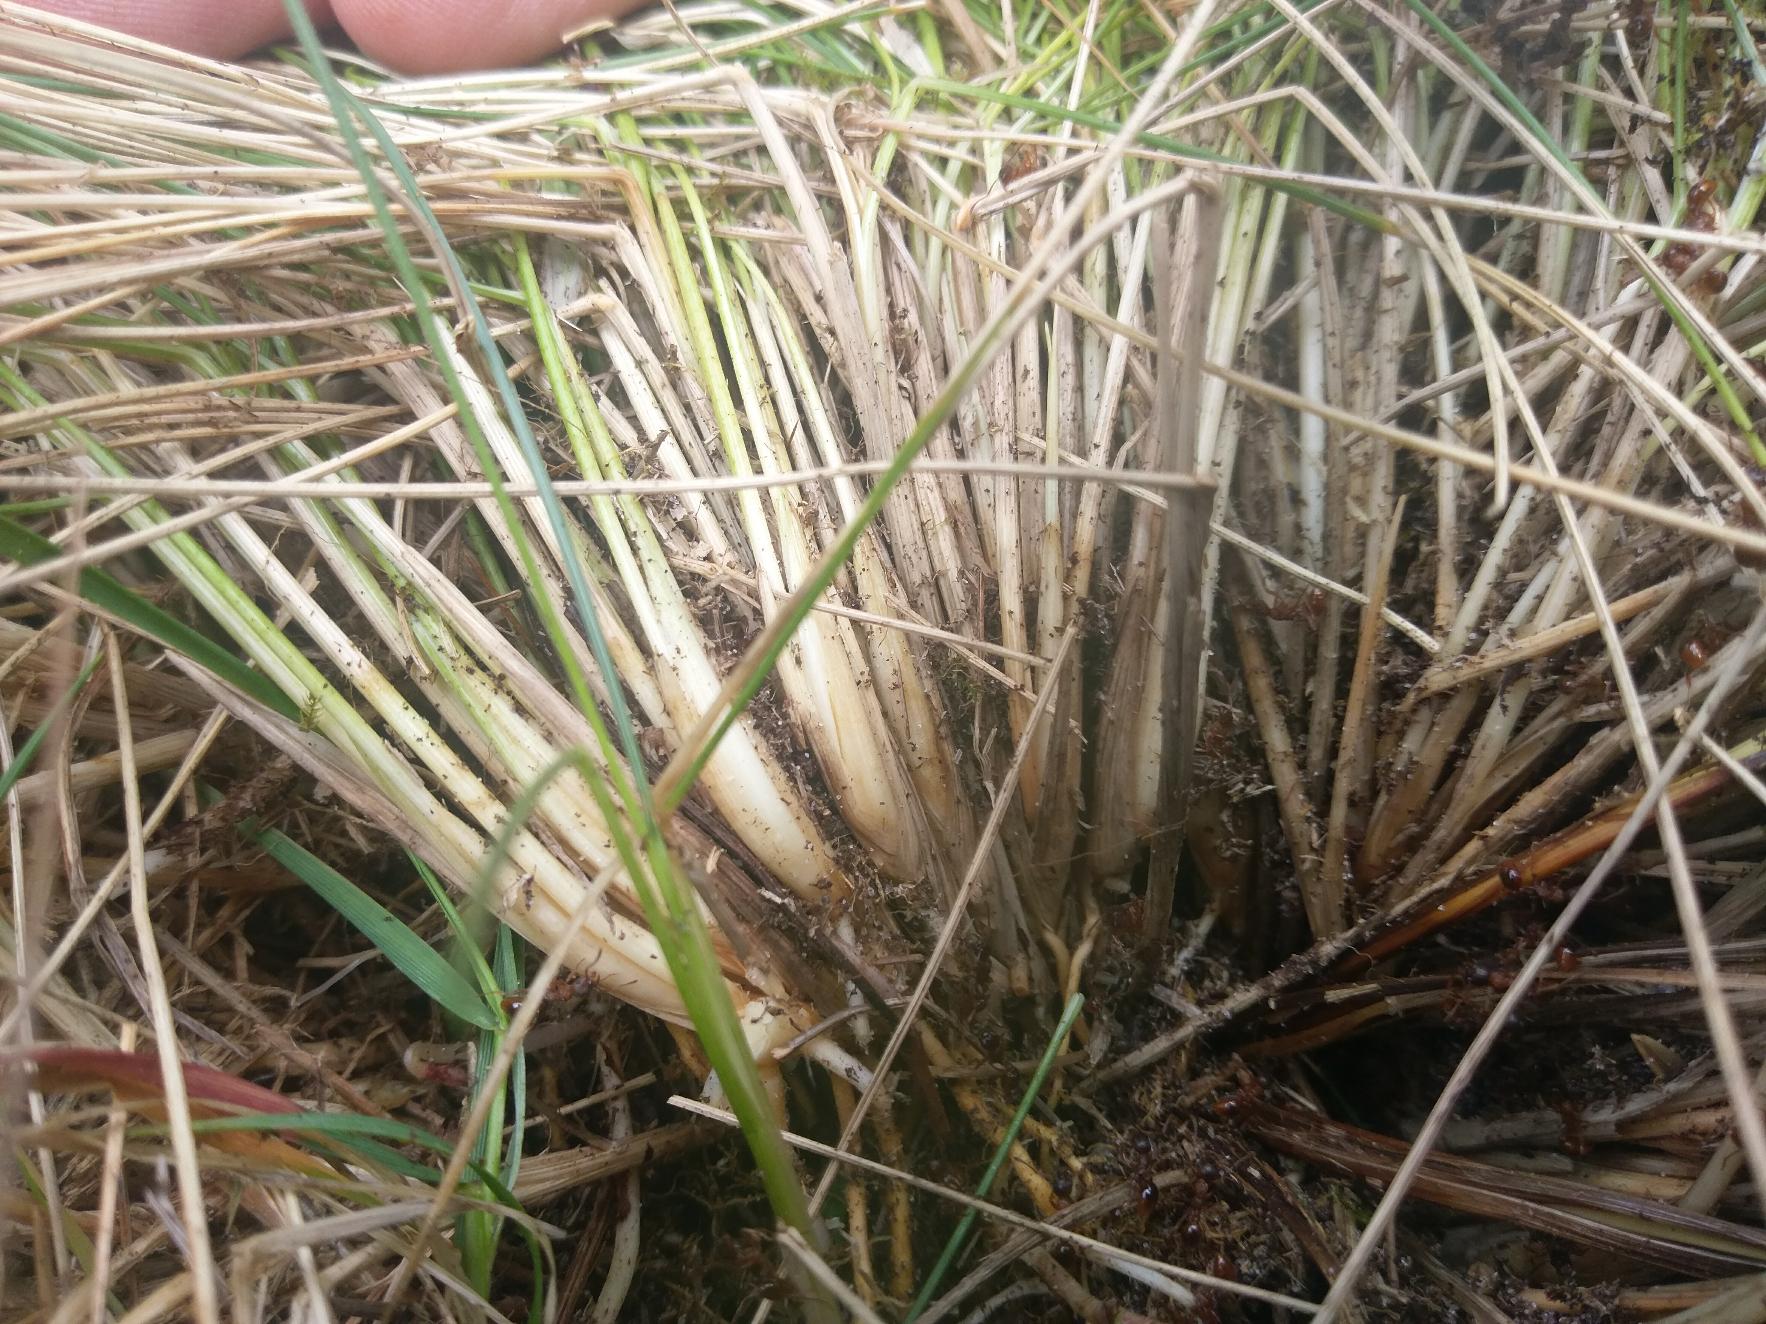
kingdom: Plantae
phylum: Tracheophyta
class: Liliopsida
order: Poales
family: Poaceae
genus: Nardus
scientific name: Nardus stricta
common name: Katteskæg
